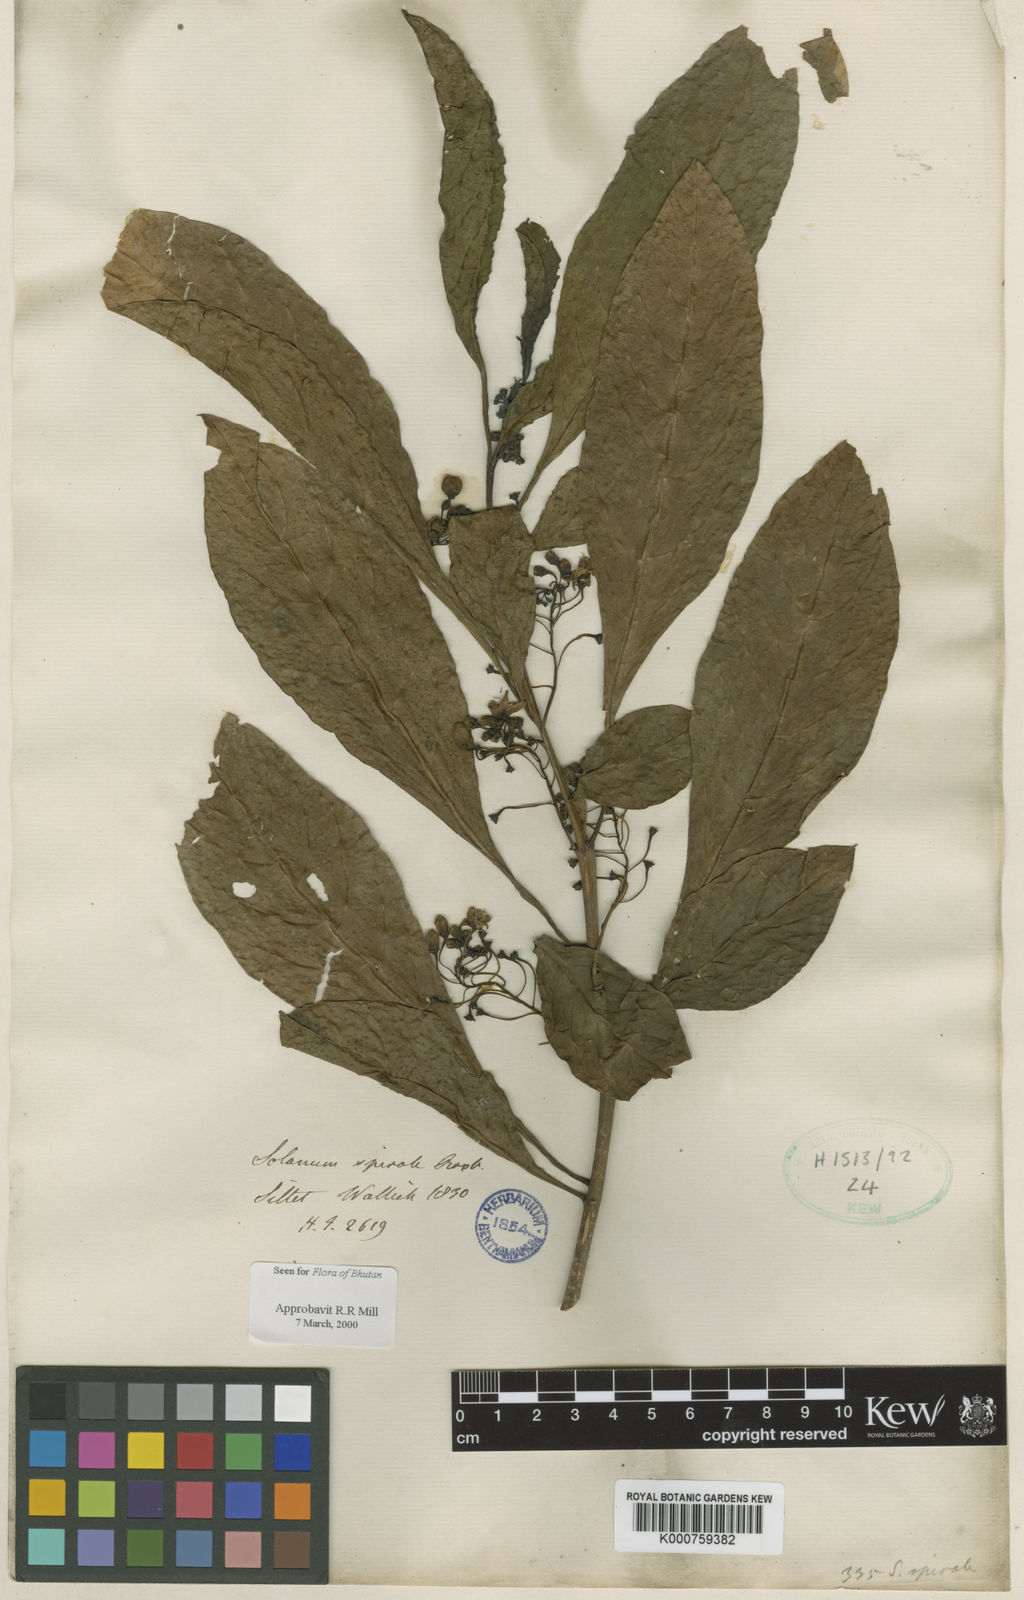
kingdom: Plantae
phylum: Tracheophyta
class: Magnoliopsida
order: Solanales
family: Solanaceae
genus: Solanum
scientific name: Solanum spirale
